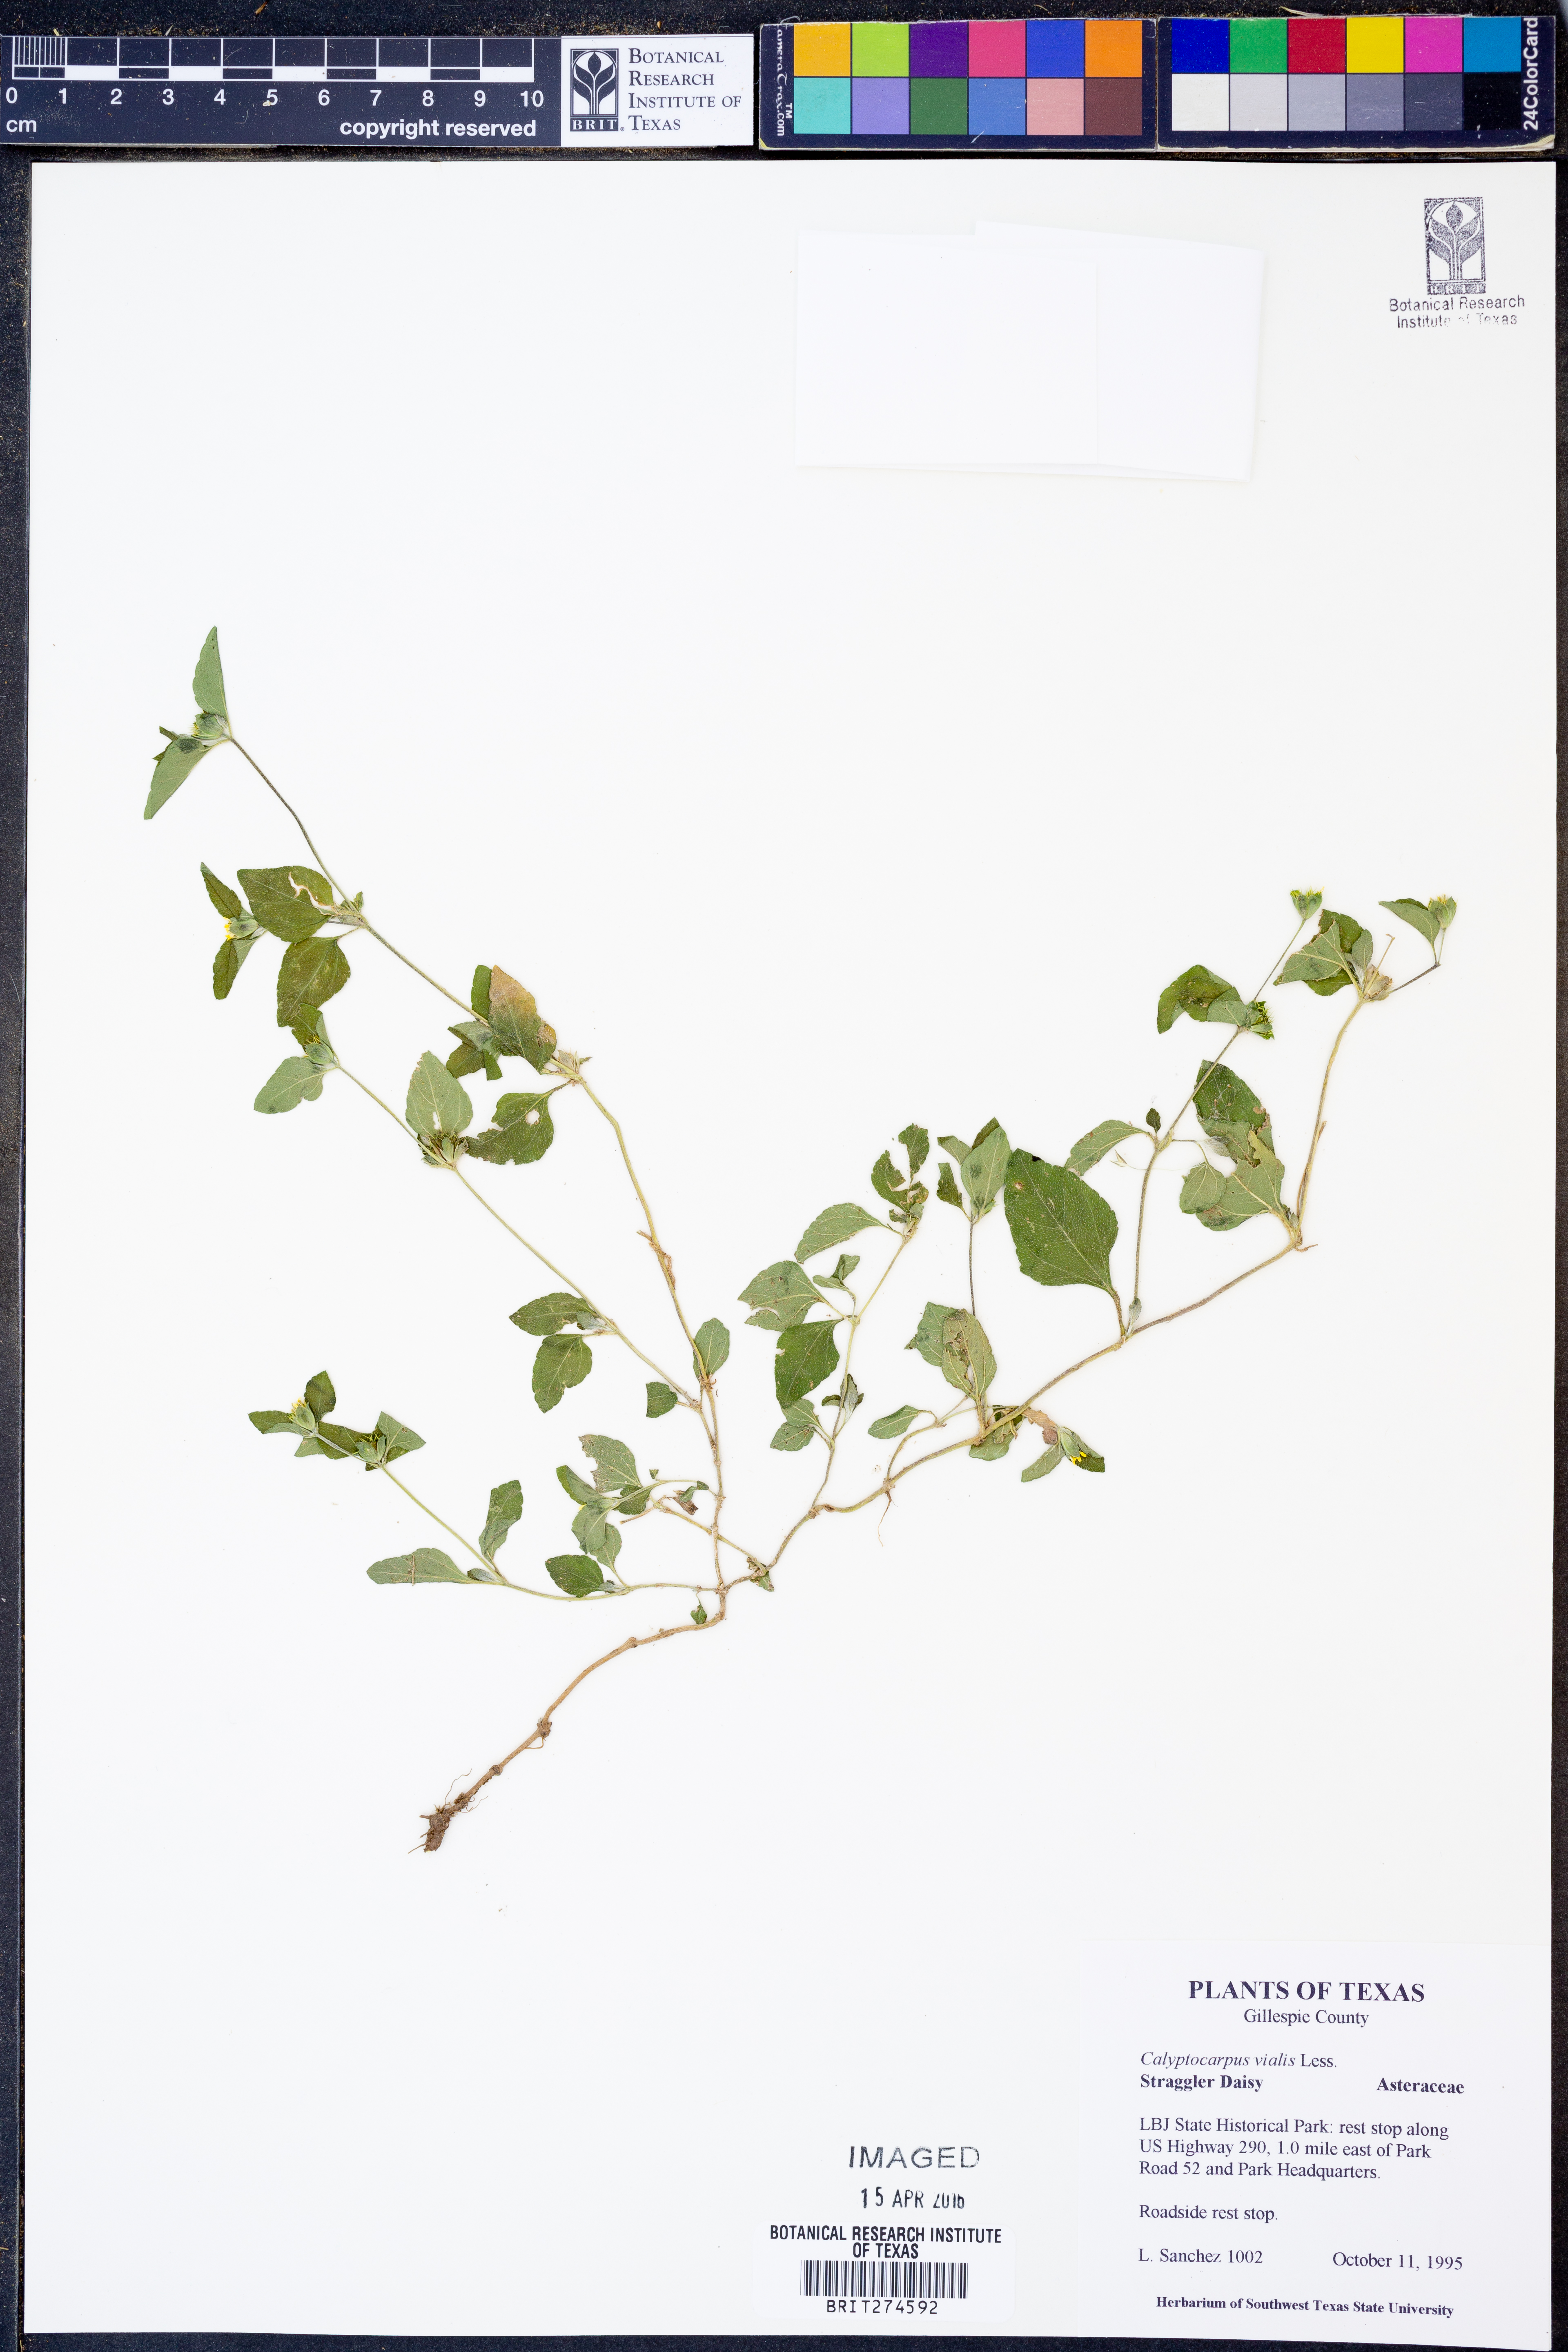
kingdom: Plantae
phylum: Tracheophyta
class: Magnoliopsida
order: Asterales
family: Asteraceae
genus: Calyptocarpus
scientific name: Calyptocarpus vialis
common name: Straggler daisy
